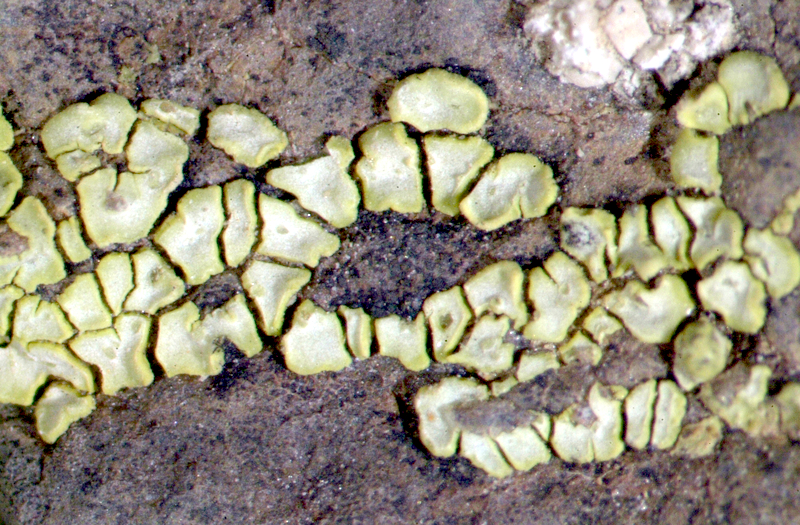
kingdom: Fungi
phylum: Ascomycota
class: Lecanoromycetes
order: Teloschistales
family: Teloschistaceae
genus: Teloschistes
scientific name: Teloschistes capensis
